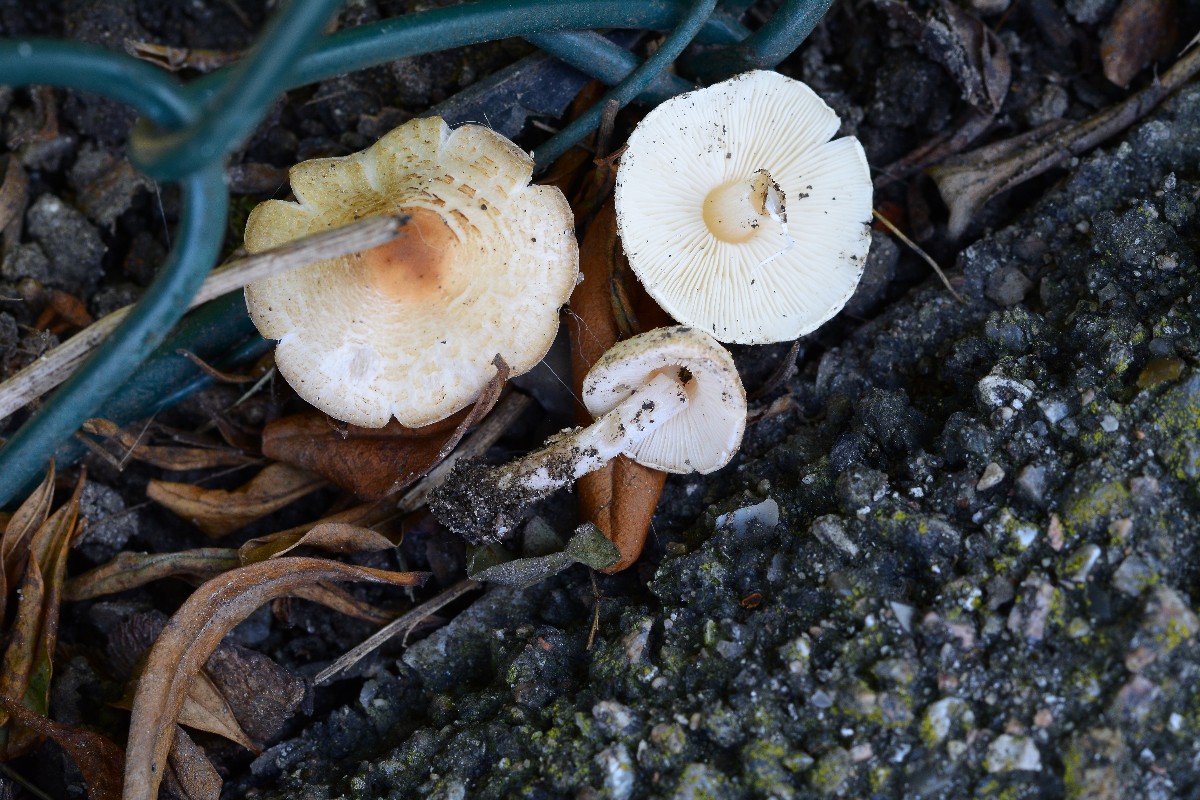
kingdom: Fungi
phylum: Basidiomycota
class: Agaricomycetes
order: Agaricales
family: Agaricaceae
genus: Lepiota
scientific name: Lepiota cristata
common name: stinkende parasolhat
